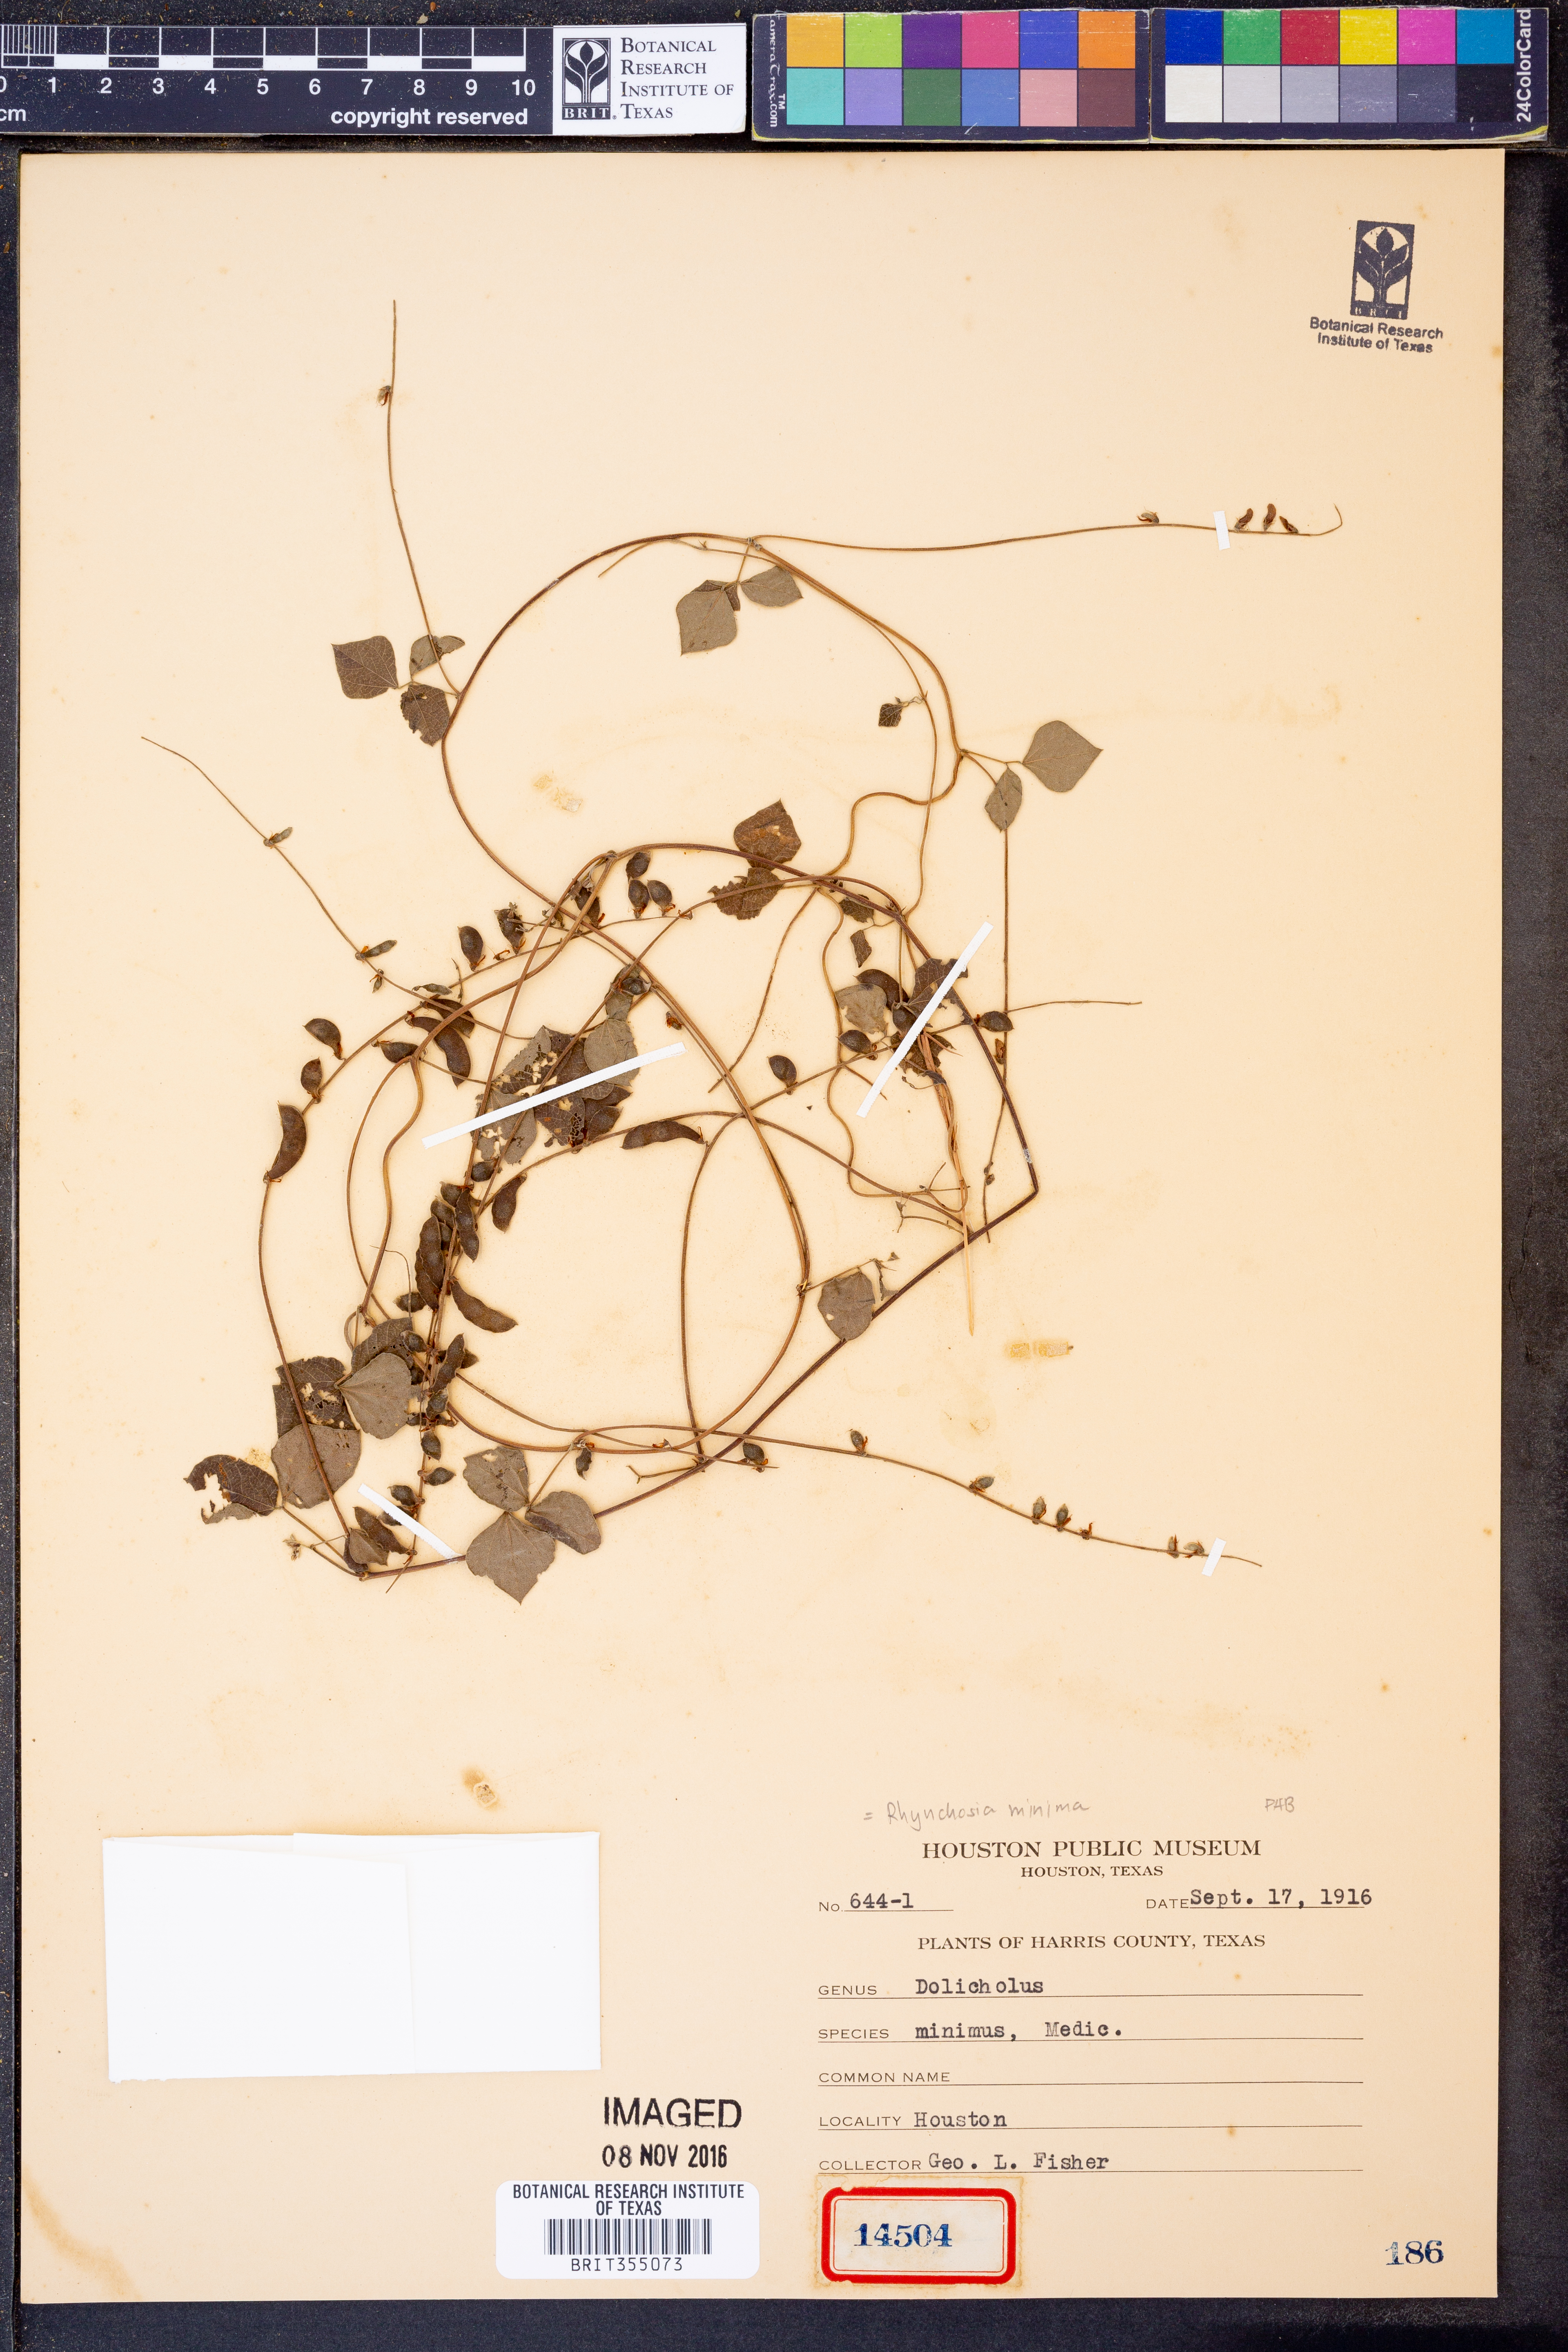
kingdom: Plantae
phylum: Tracheophyta
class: Magnoliopsida
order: Fabales
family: Fabaceae
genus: Rhynchosia
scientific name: Rhynchosia minima
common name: Least snoutbean
